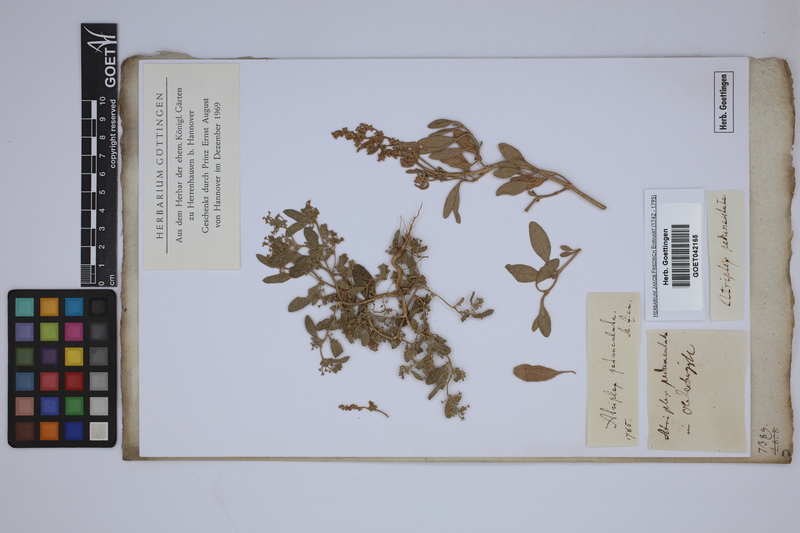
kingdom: Plantae
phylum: Tracheophyta
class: Magnoliopsida
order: Caryophyllales
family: Amaranthaceae
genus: Halimione
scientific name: Halimione pedunculata
